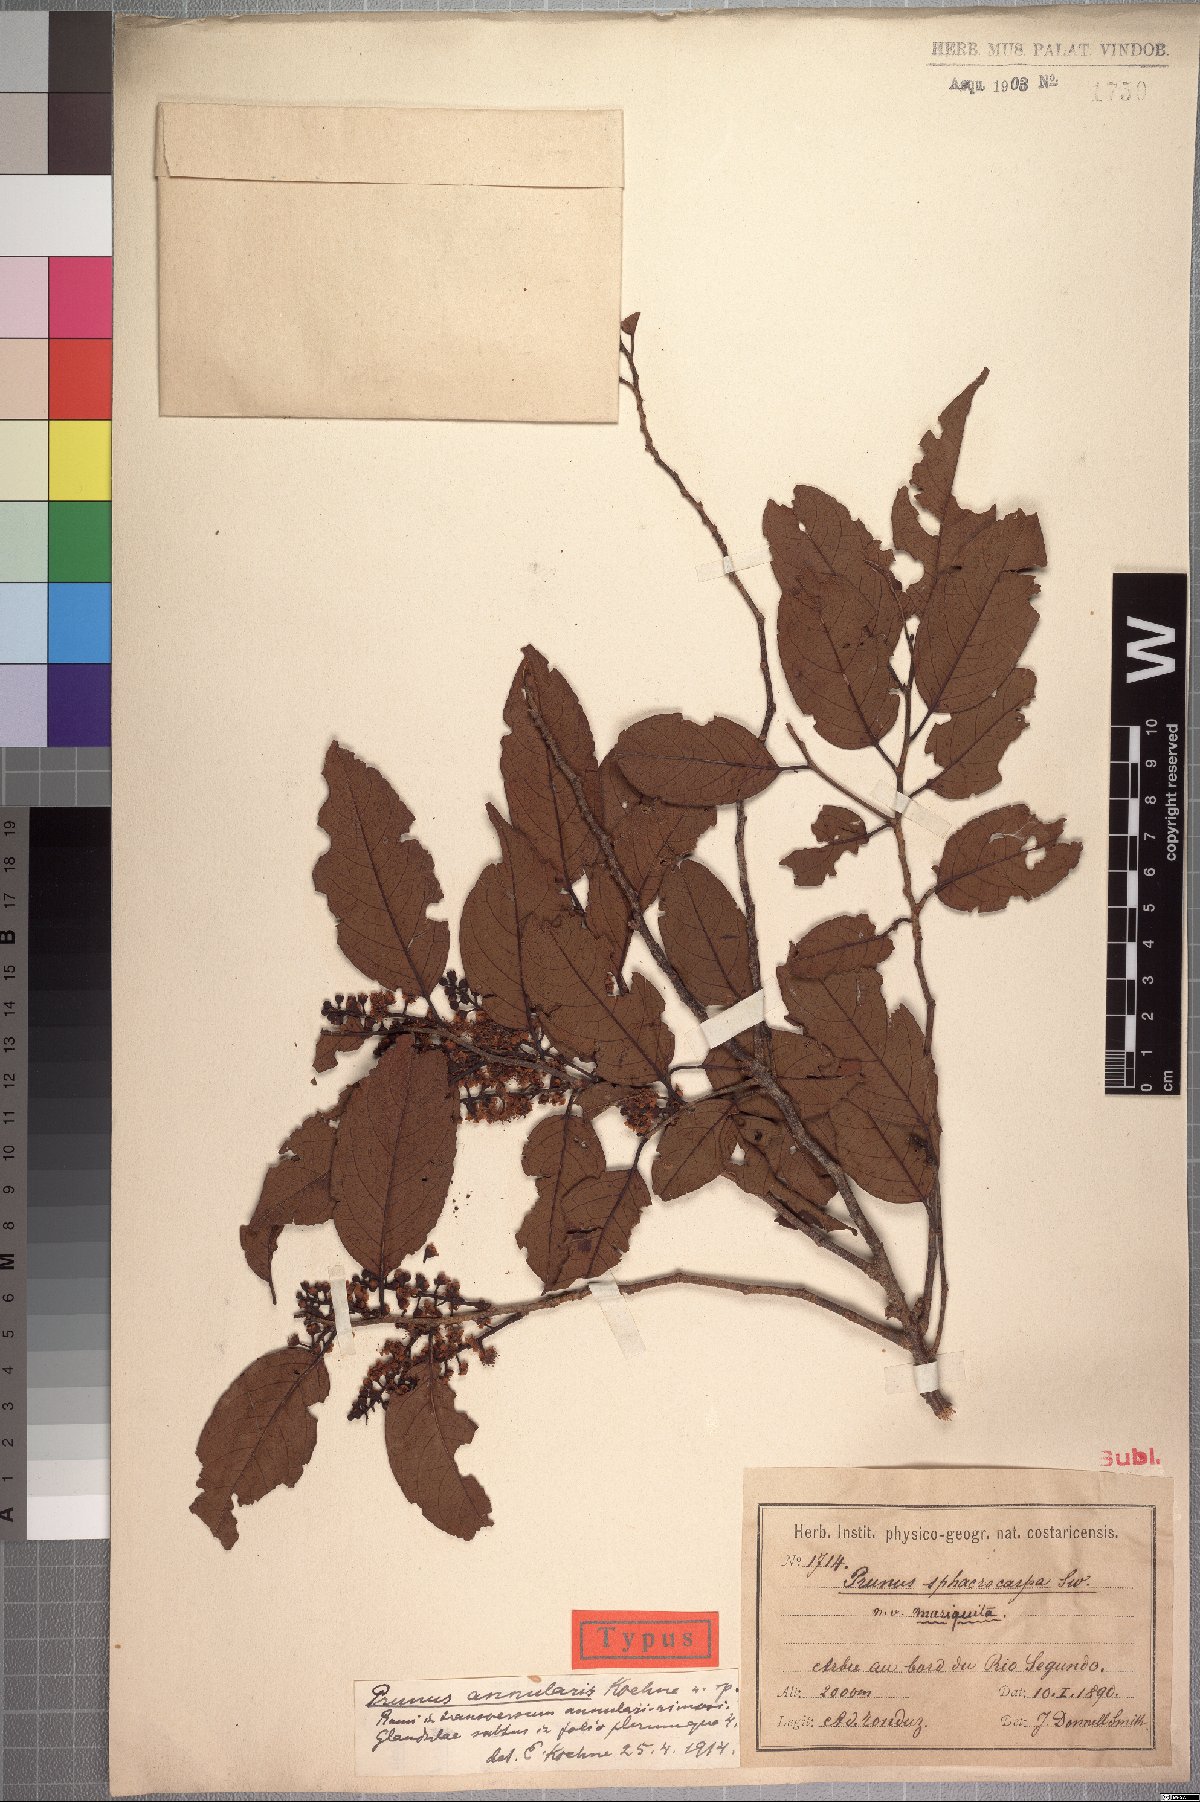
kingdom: Plantae
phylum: Tracheophyta
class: Magnoliopsida
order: Rosales
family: Rosaceae
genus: Prunus
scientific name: Prunus annularis
